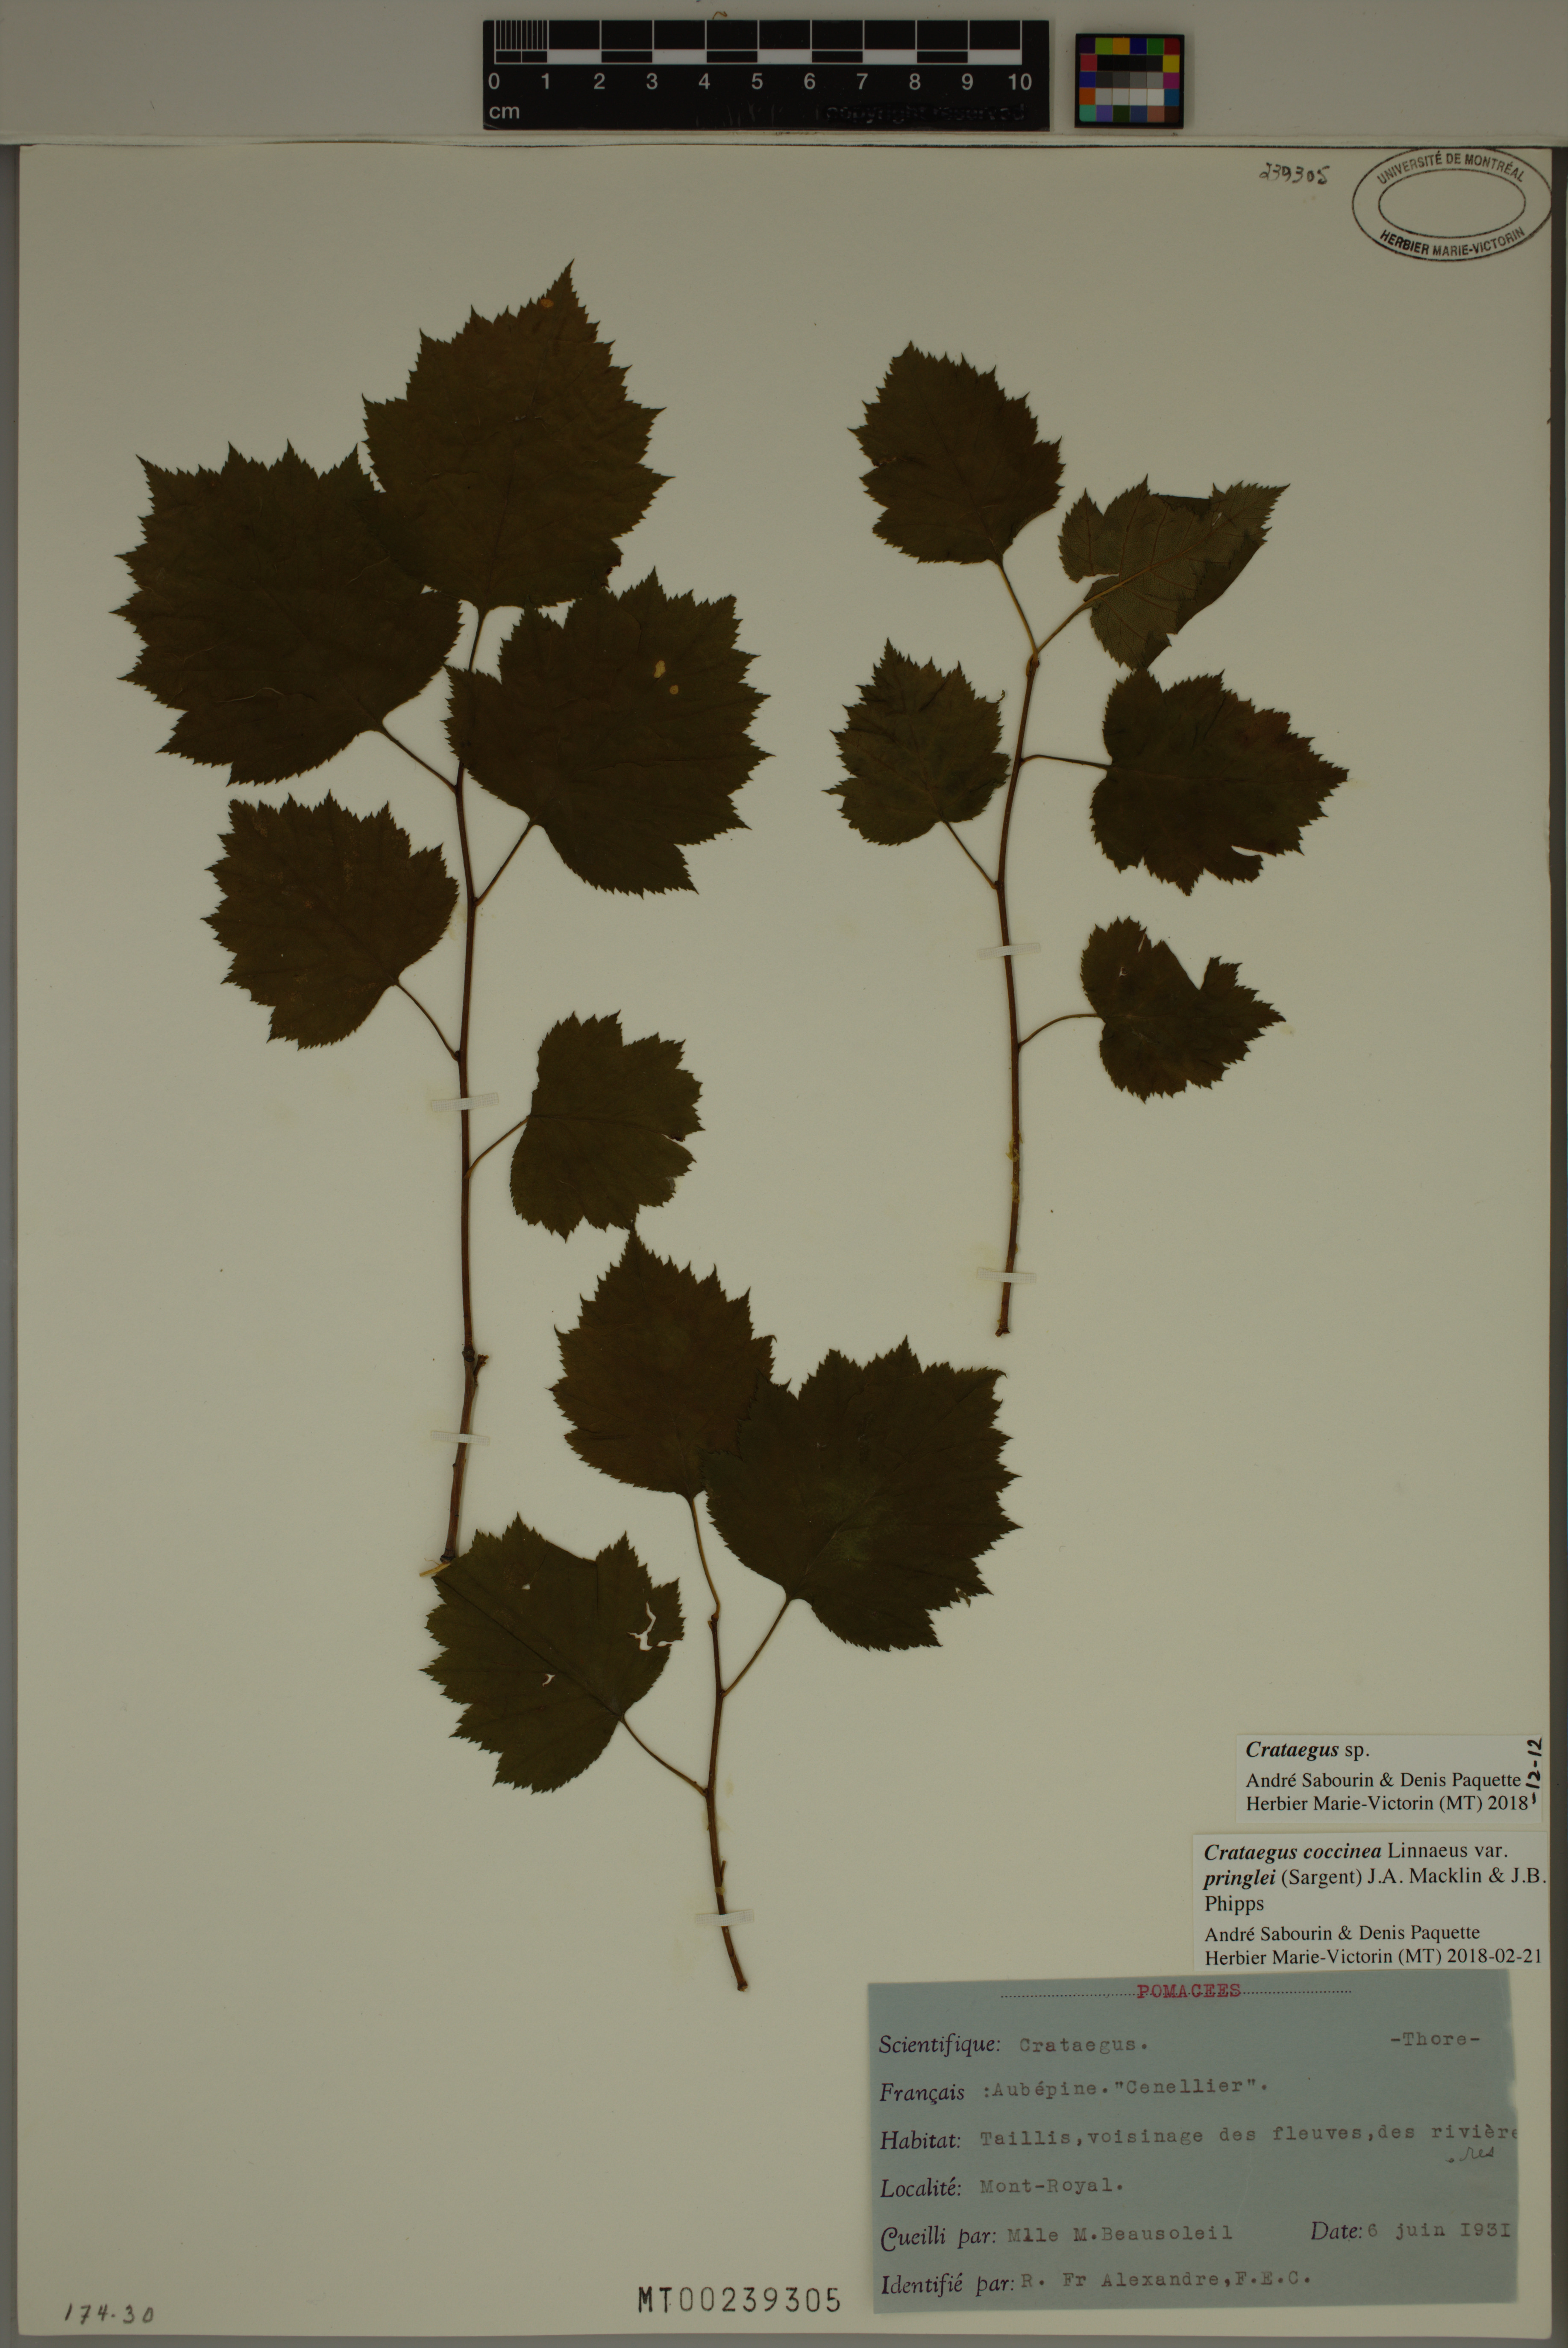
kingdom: Plantae
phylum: Tracheophyta
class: Magnoliopsida
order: Rosales
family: Rosaceae
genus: Crataegus
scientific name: Crataegus
